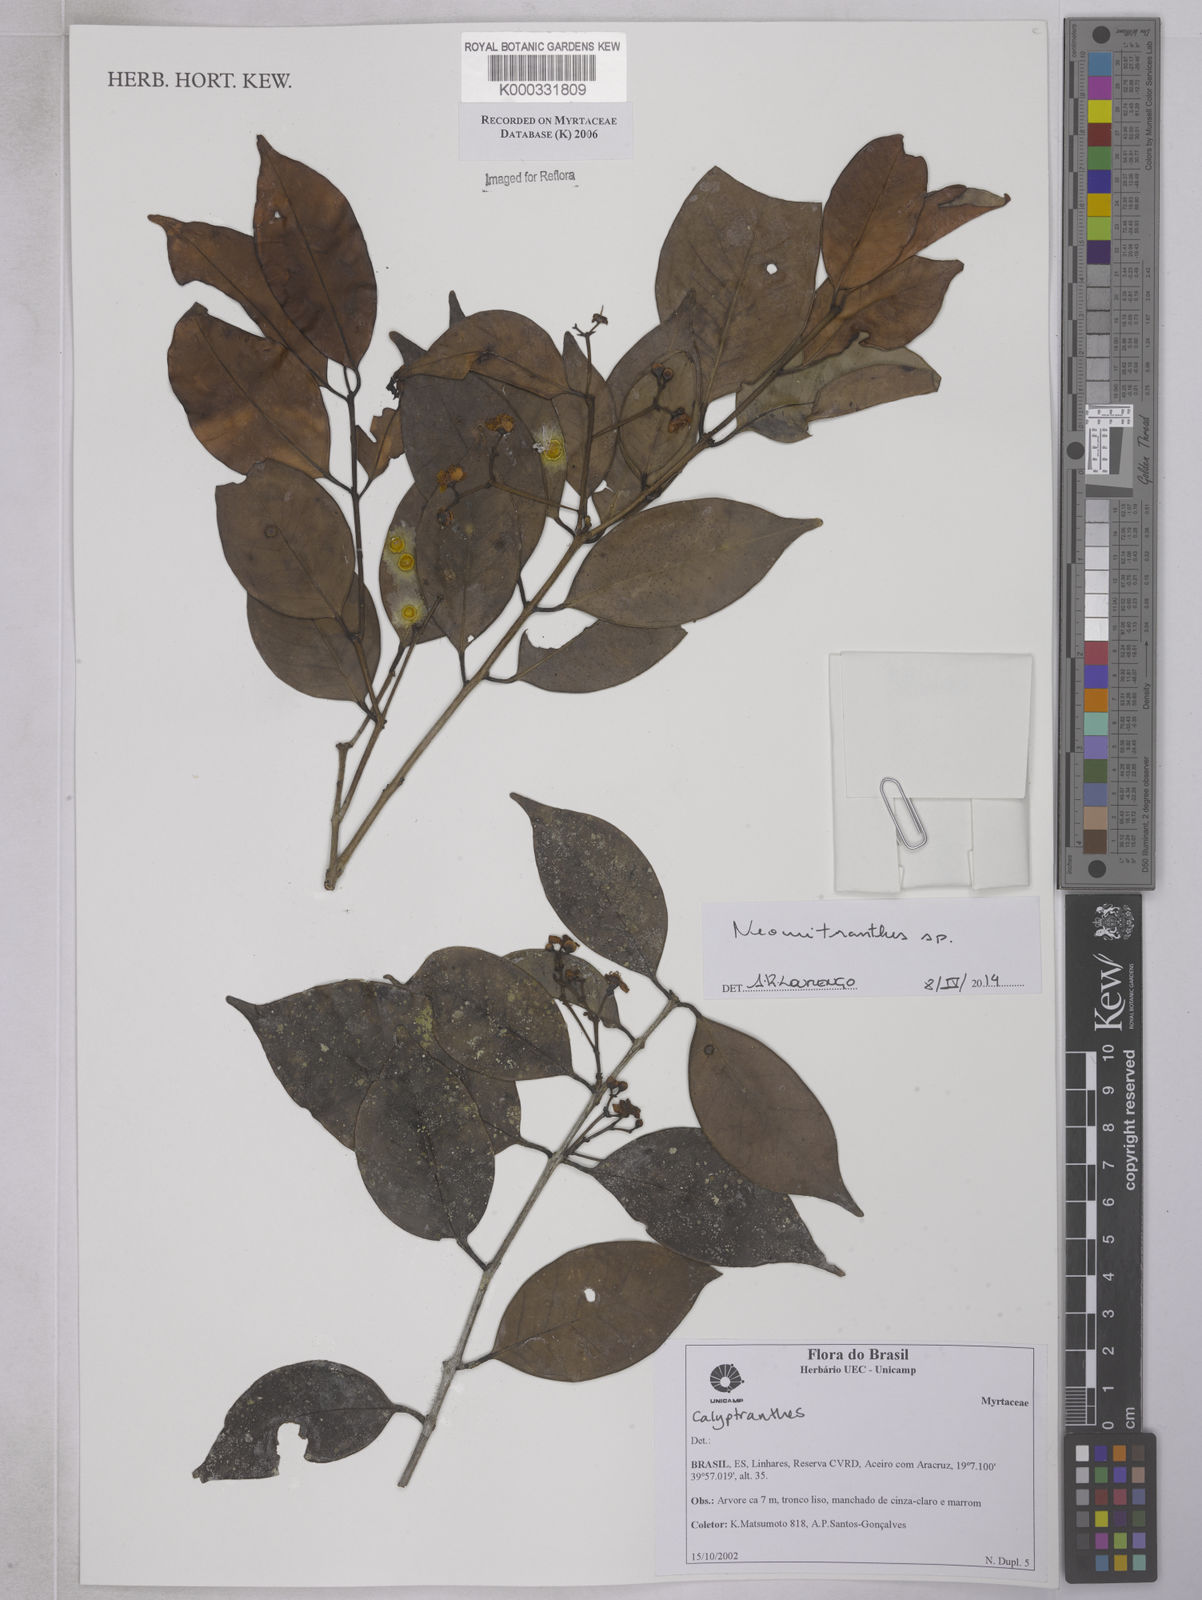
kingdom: Plantae
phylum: Tracheophyta
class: Magnoliopsida
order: Myrtales
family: Myrtaceae
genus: Calycorectes
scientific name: Calycorectes teixeireanus
